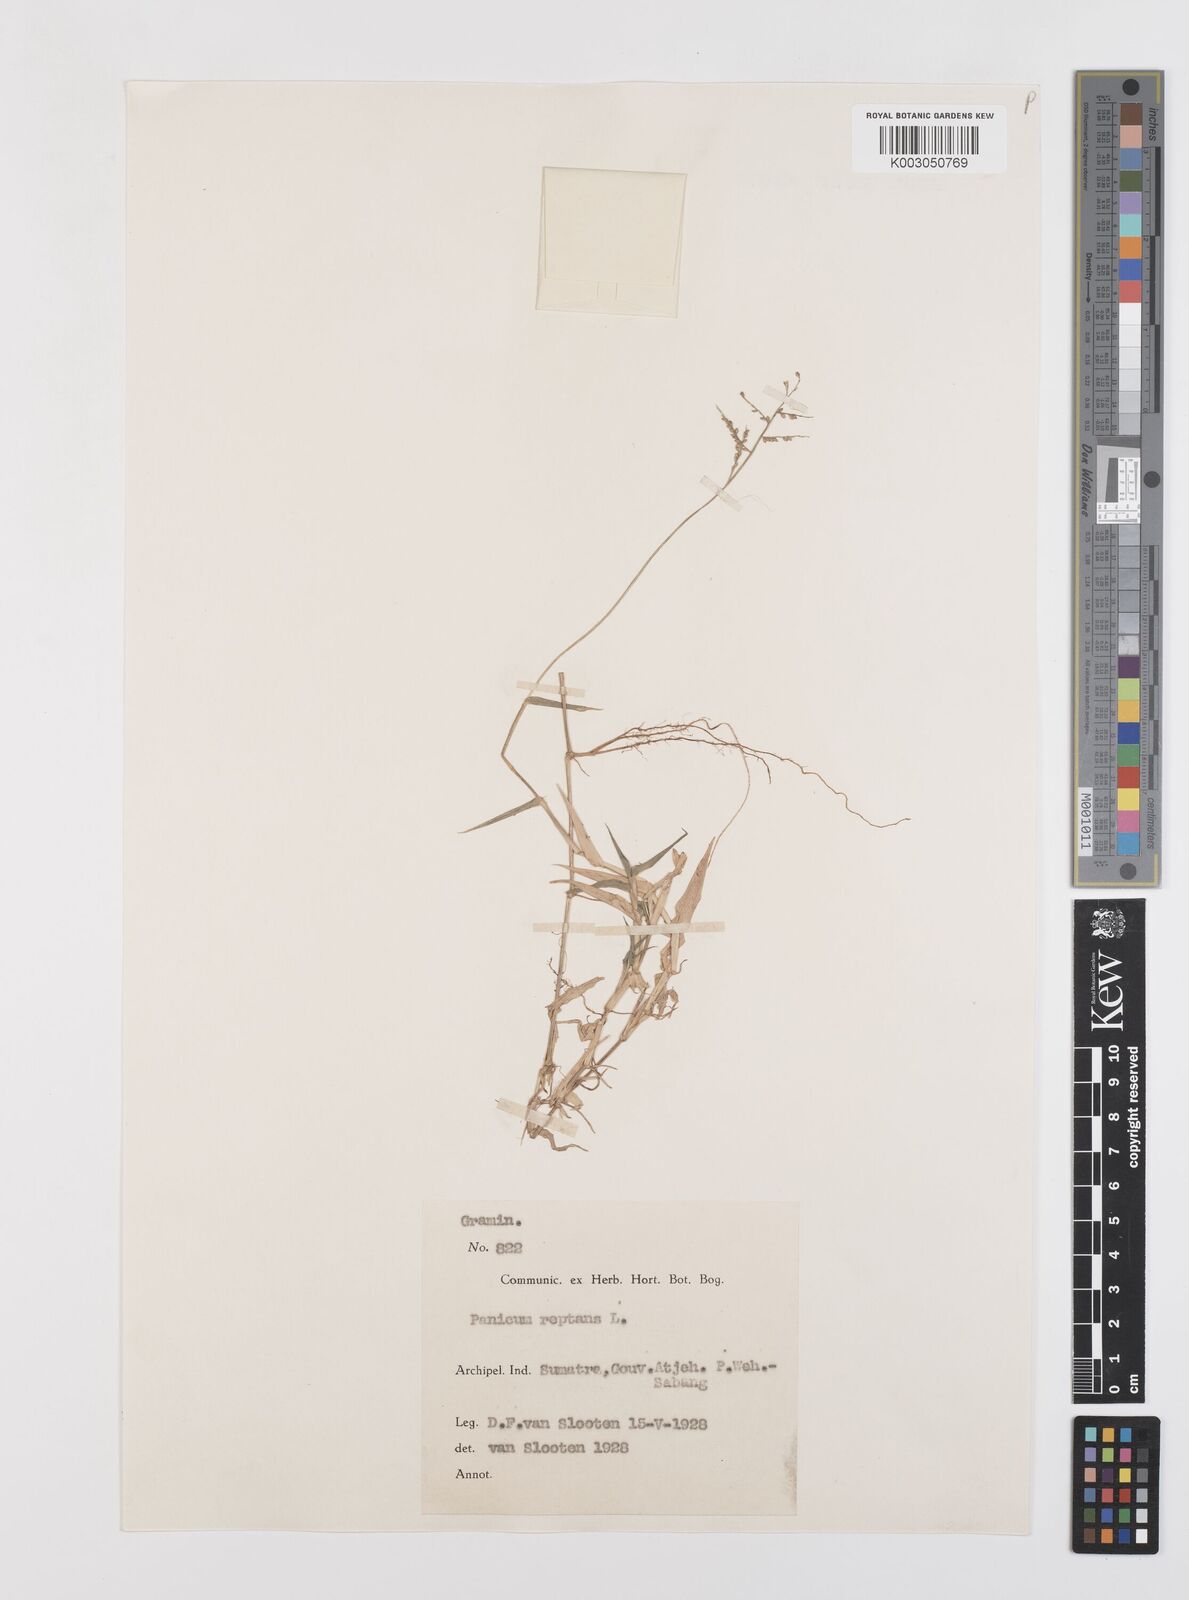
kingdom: Plantae
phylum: Tracheophyta
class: Liliopsida
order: Poales
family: Poaceae
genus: Urochloa
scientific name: Urochloa reptans
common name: Sprawling signalgrass
